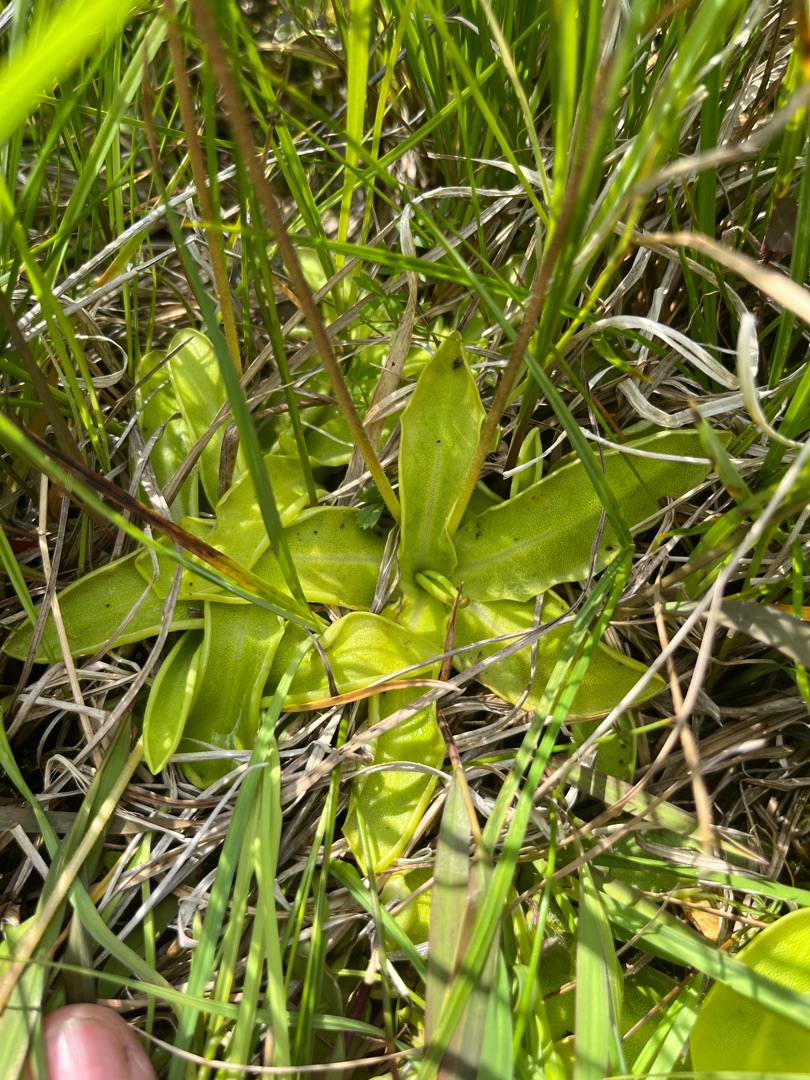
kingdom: Plantae
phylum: Tracheophyta
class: Magnoliopsida
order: Lamiales
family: Lentibulariaceae
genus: Pinguicula
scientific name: Pinguicula vulgaris
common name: Vibefedt
